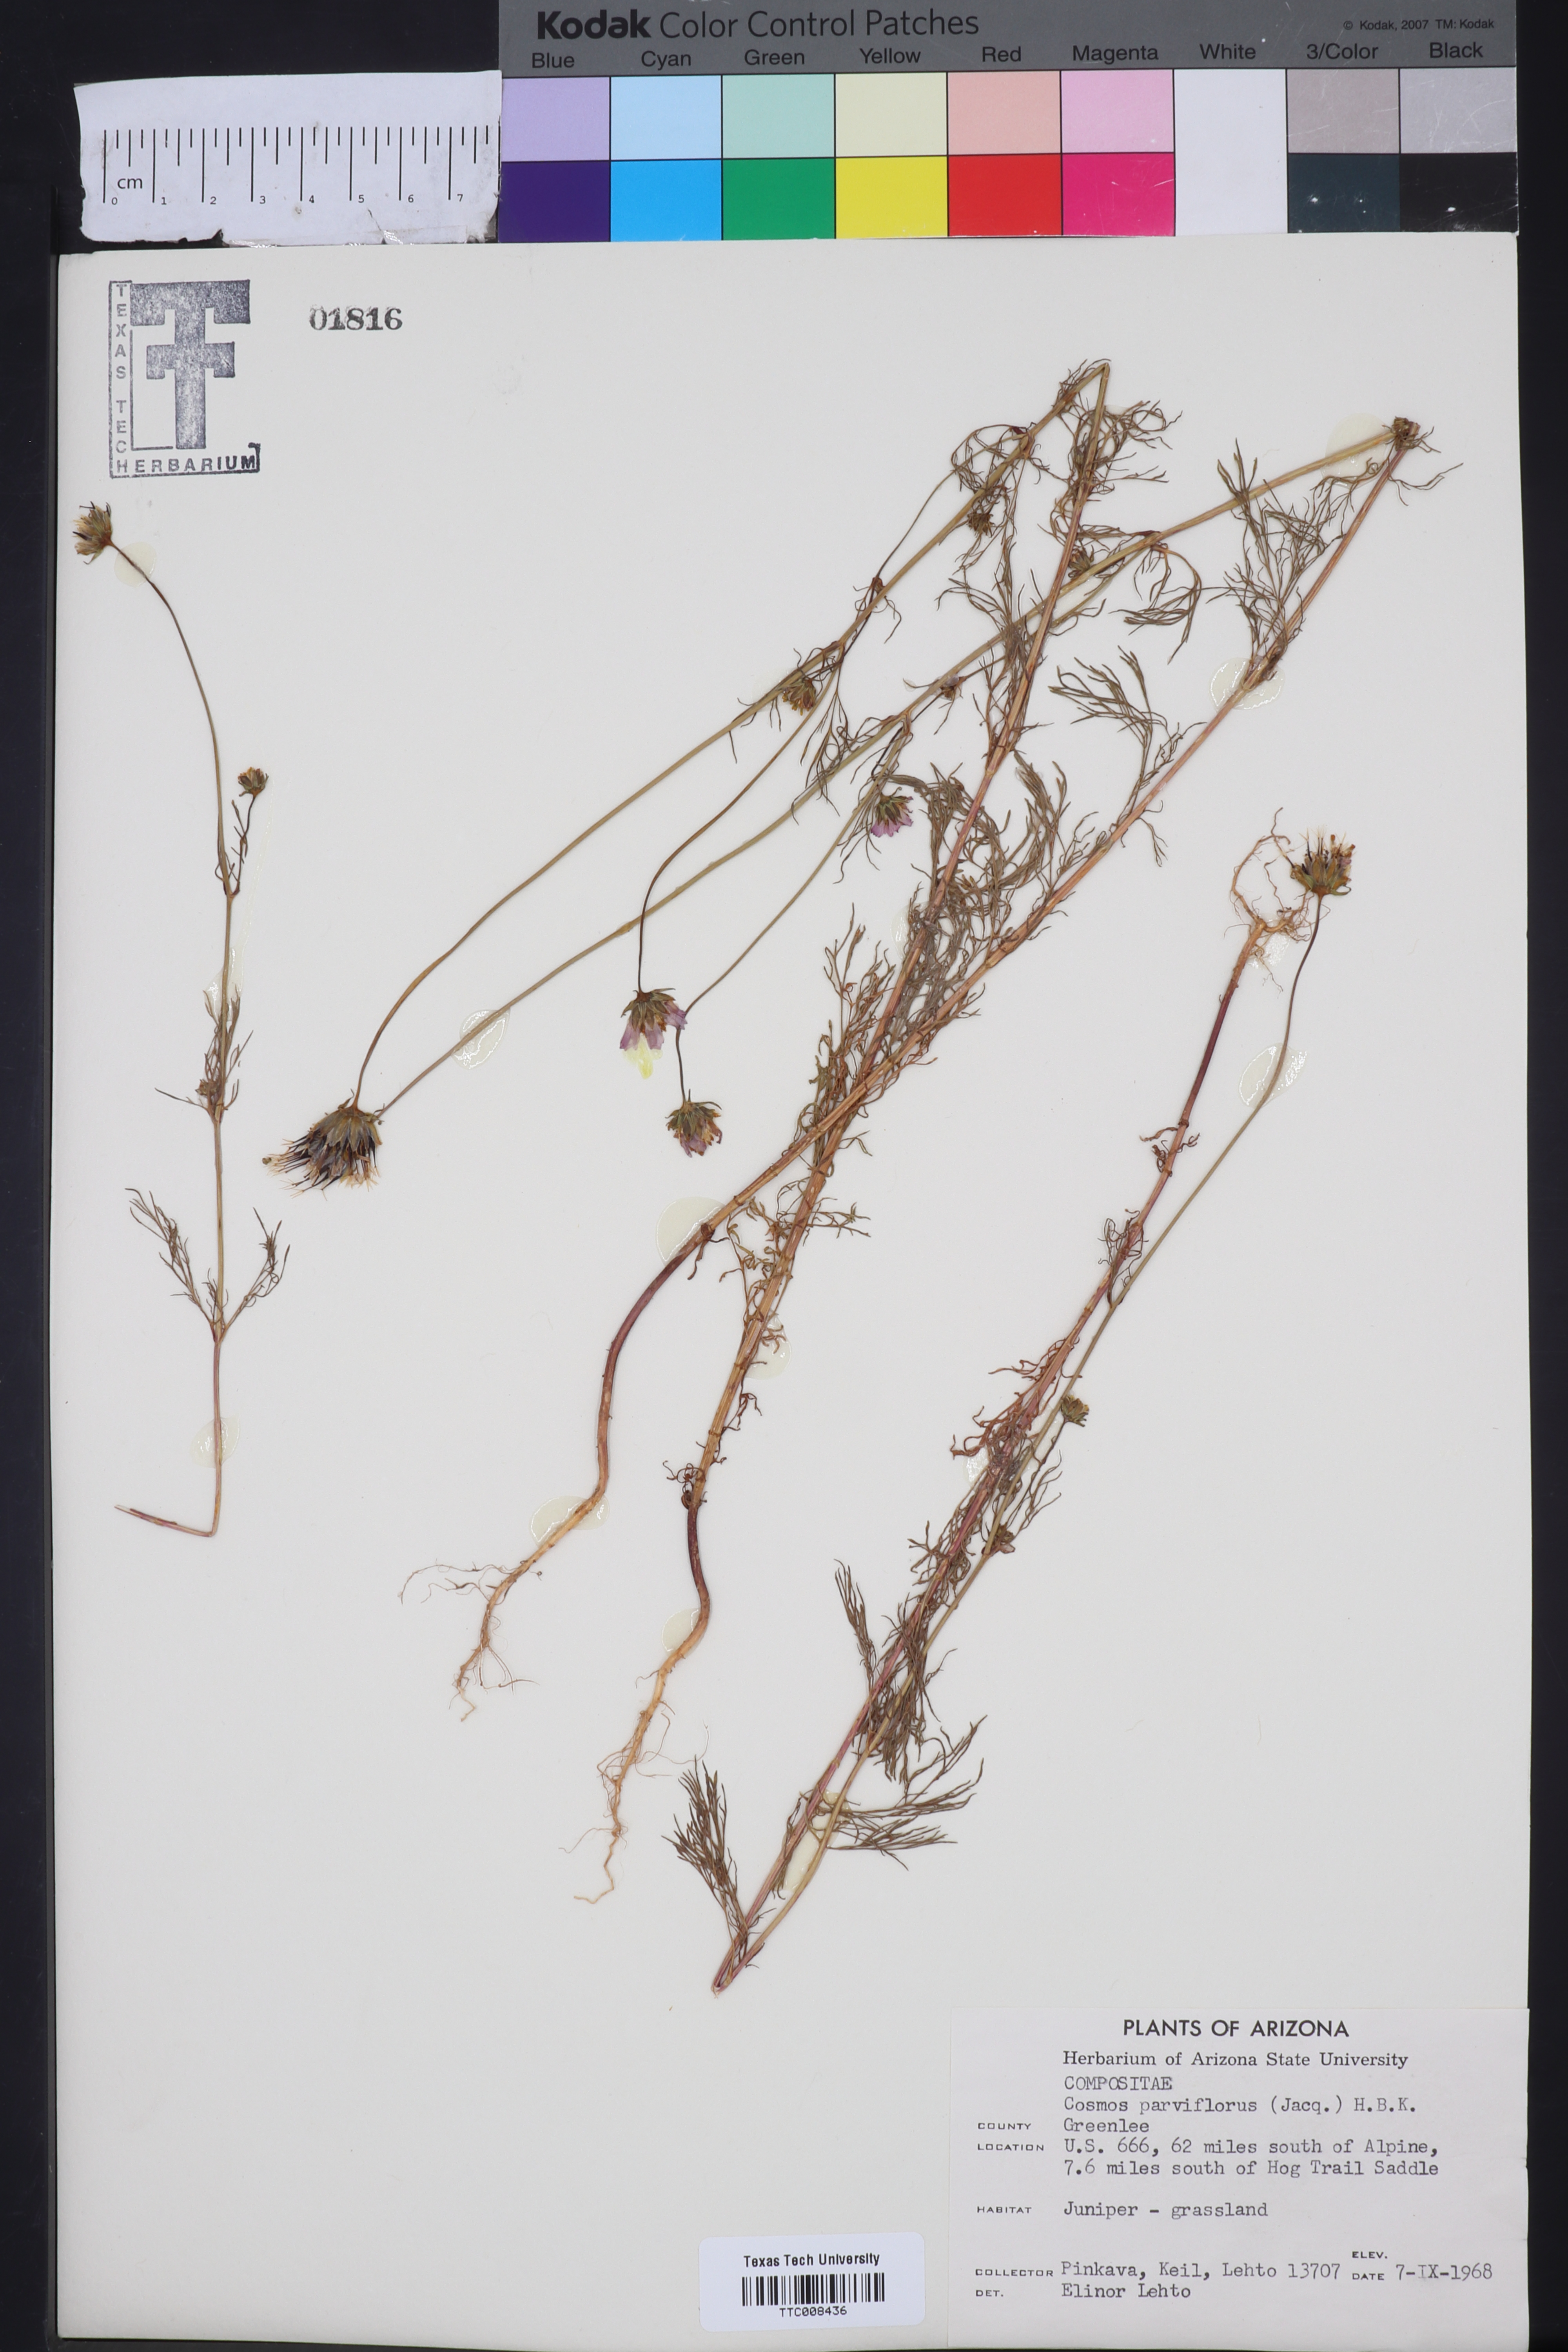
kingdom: Plantae
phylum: Tracheophyta
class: Magnoliopsida
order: Asterales
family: Asteraceae
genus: Cosmos
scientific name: Cosmos parviflorus
